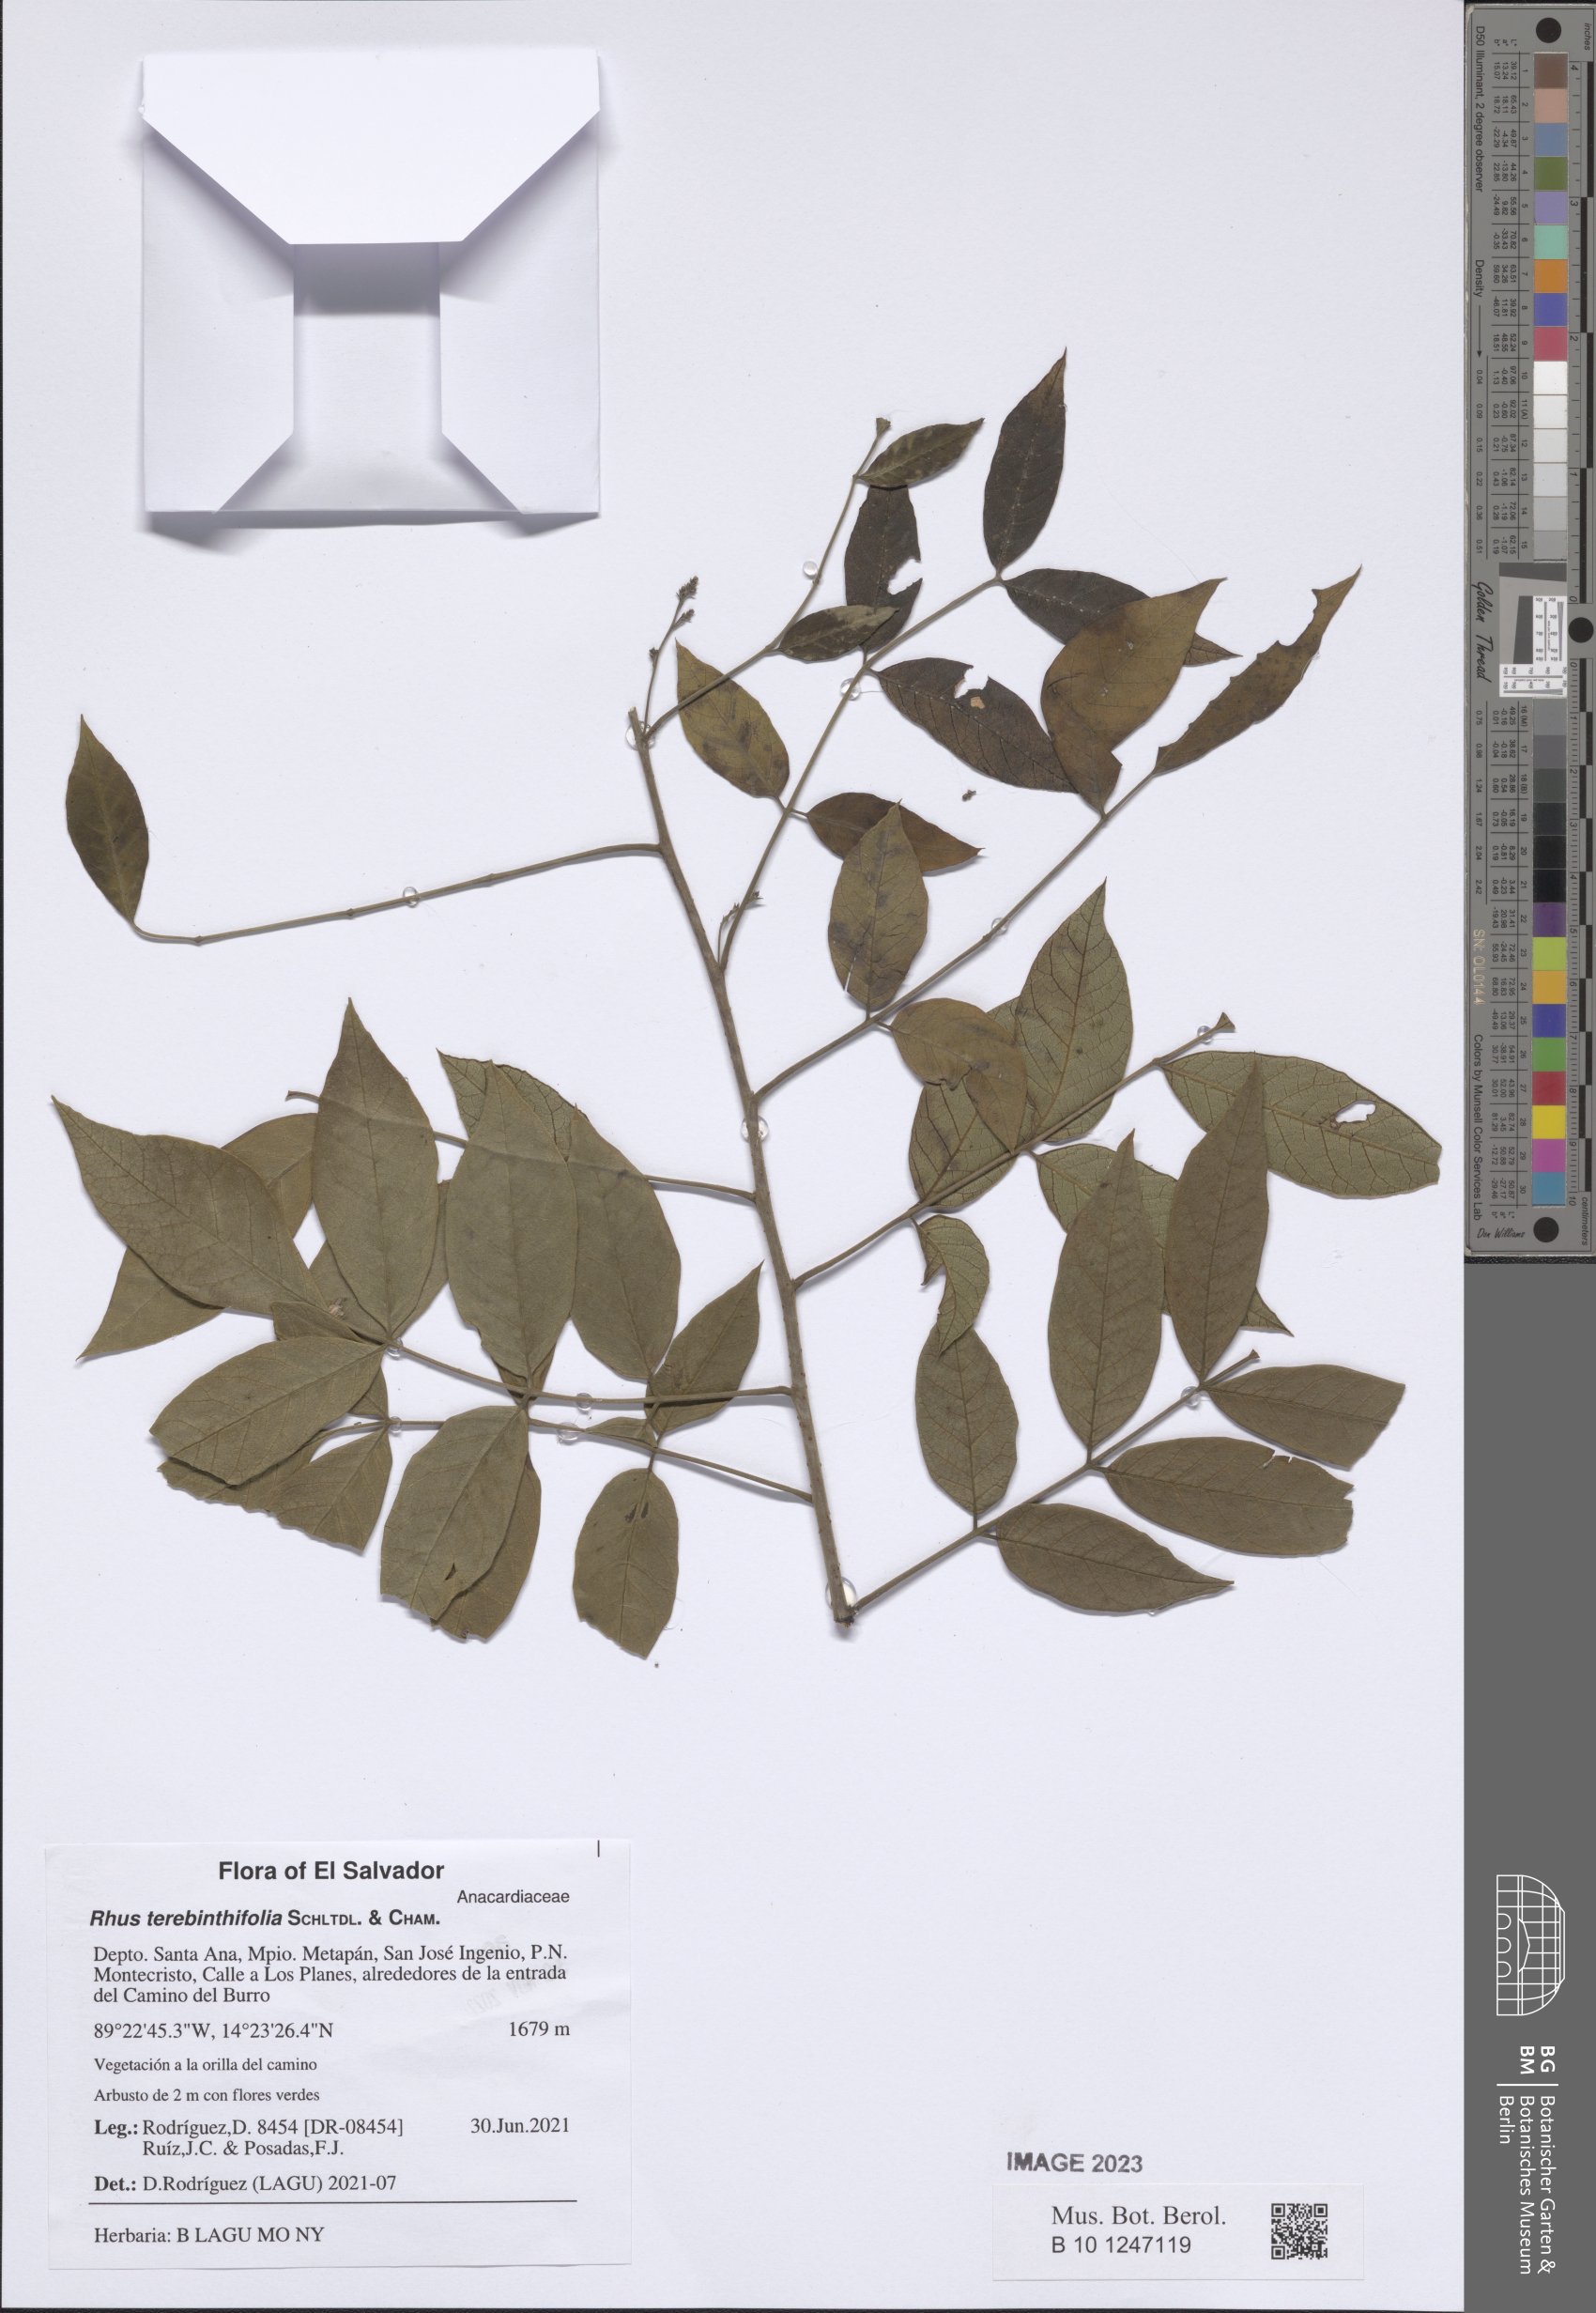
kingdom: Plantae
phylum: Tracheophyta
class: Magnoliopsida
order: Sapindales
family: Anacardiaceae
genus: Rhus
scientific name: Rhus terebinthifolia
